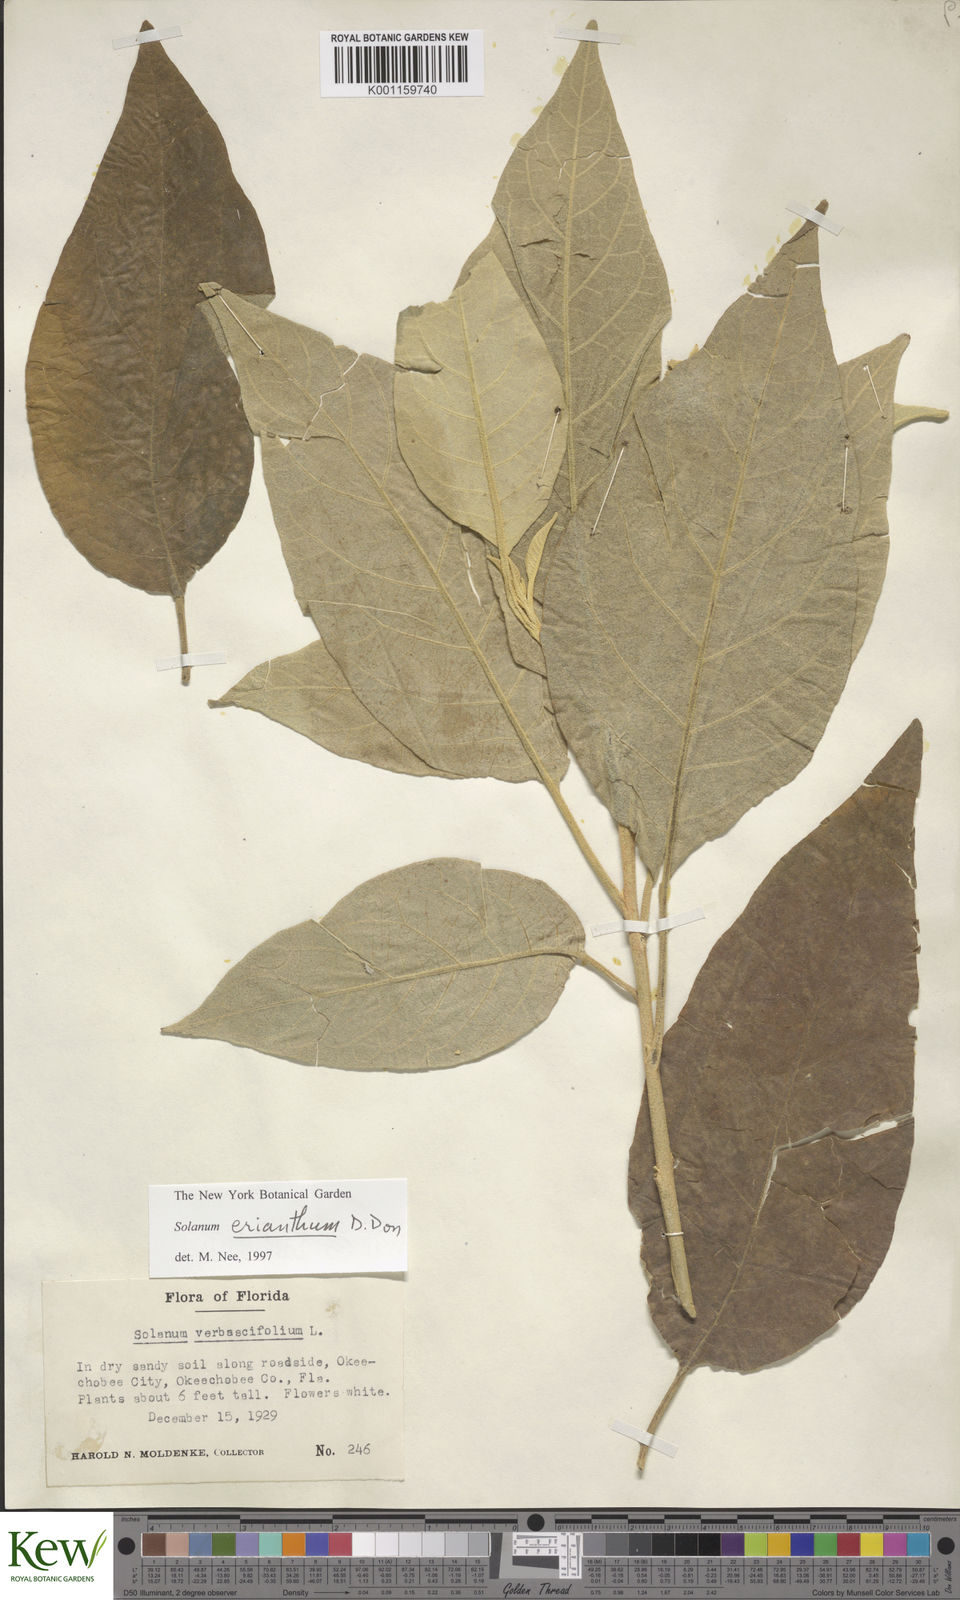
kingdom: Plantae
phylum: Tracheophyta
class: Magnoliopsida
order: Solanales
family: Solanaceae
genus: Solanum
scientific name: Solanum donianum
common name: Mullein nightshade
